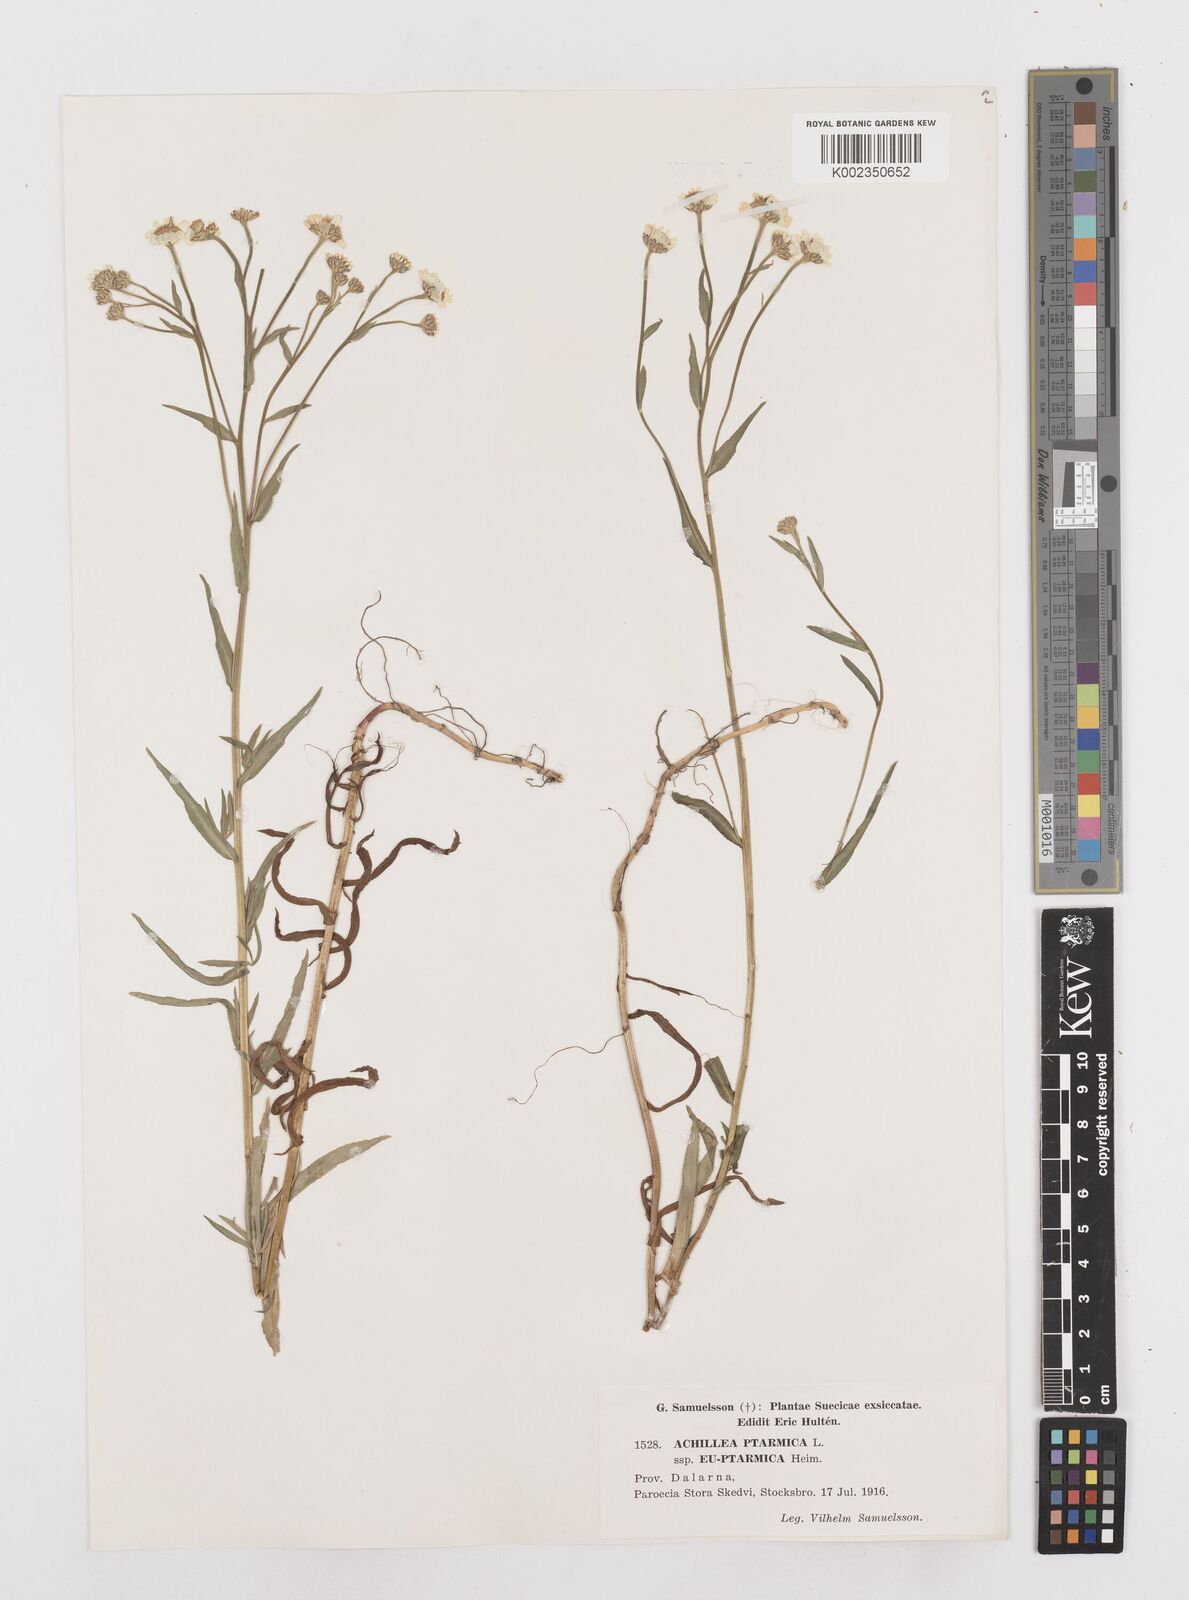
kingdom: Plantae
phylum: Tracheophyta
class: Magnoliopsida
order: Asterales
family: Asteraceae
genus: Achillea
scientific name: Achillea ptarmica
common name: Sneezeweed
